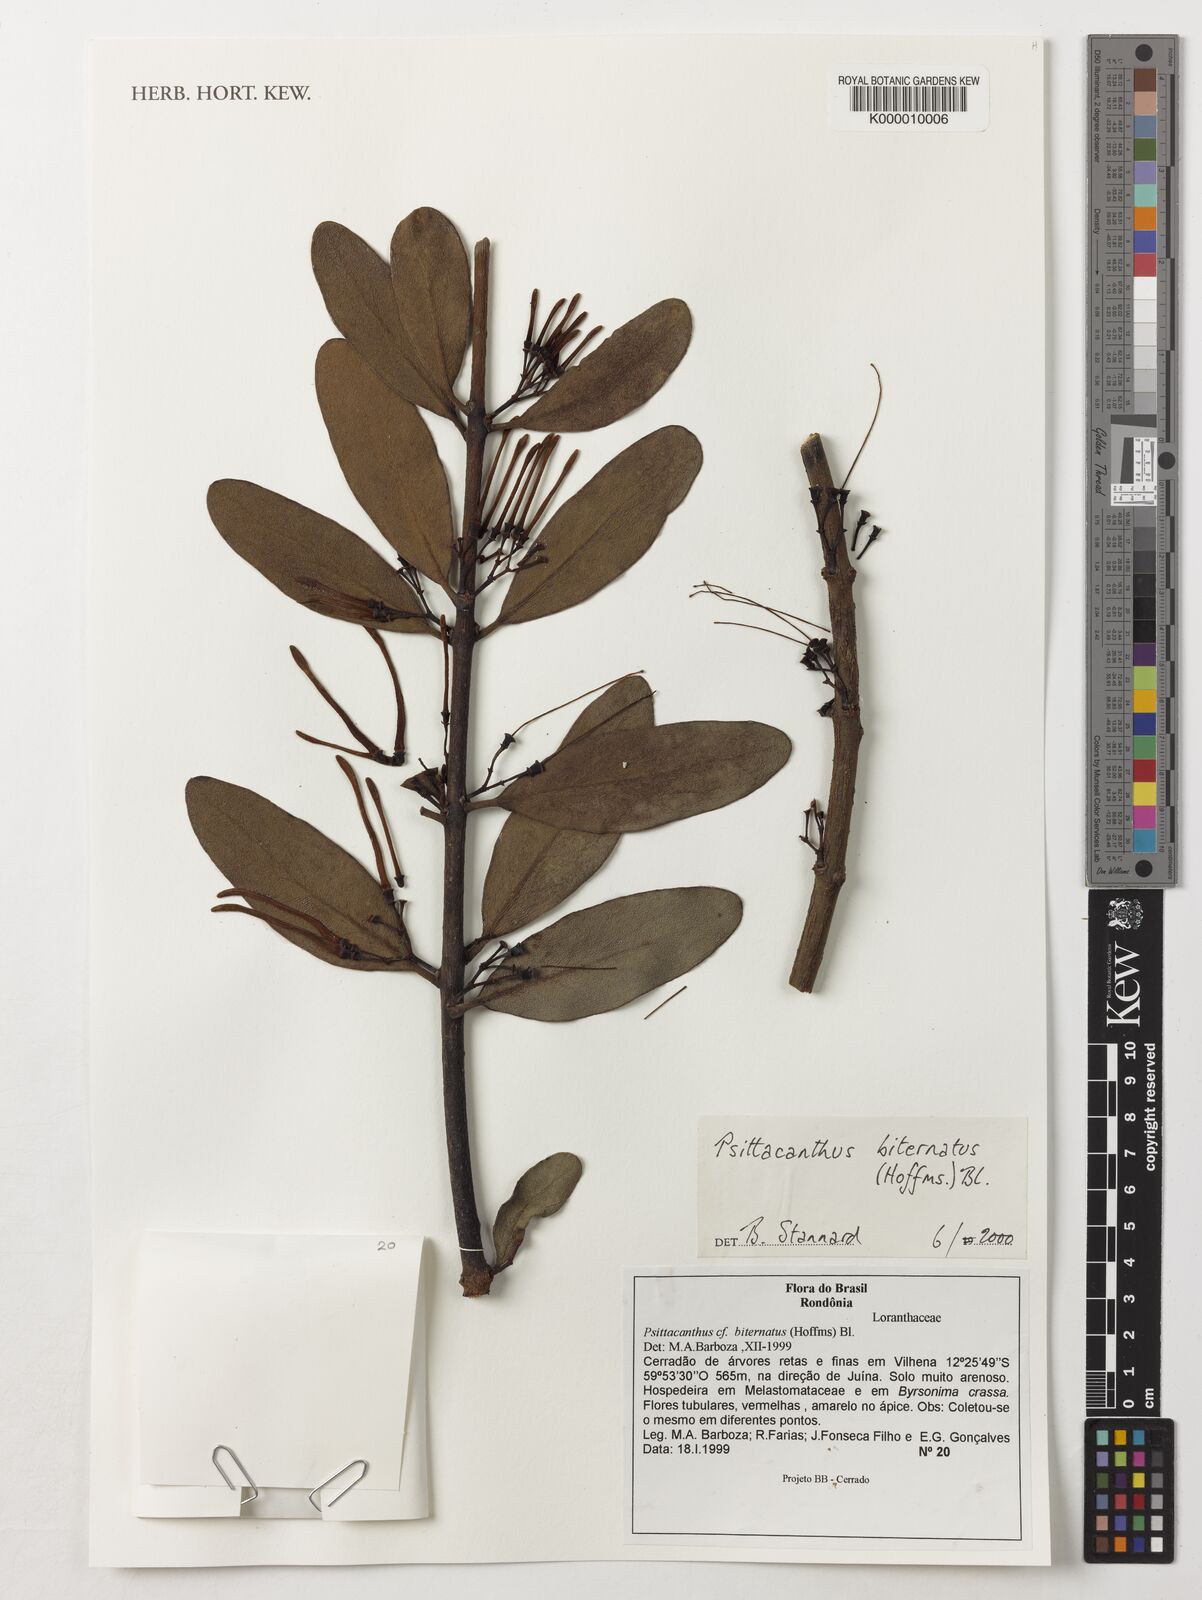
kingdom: Plantae
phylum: Tracheophyta
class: Magnoliopsida
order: Santalales
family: Loranthaceae
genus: Psittacanthus
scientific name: Psittacanthus
